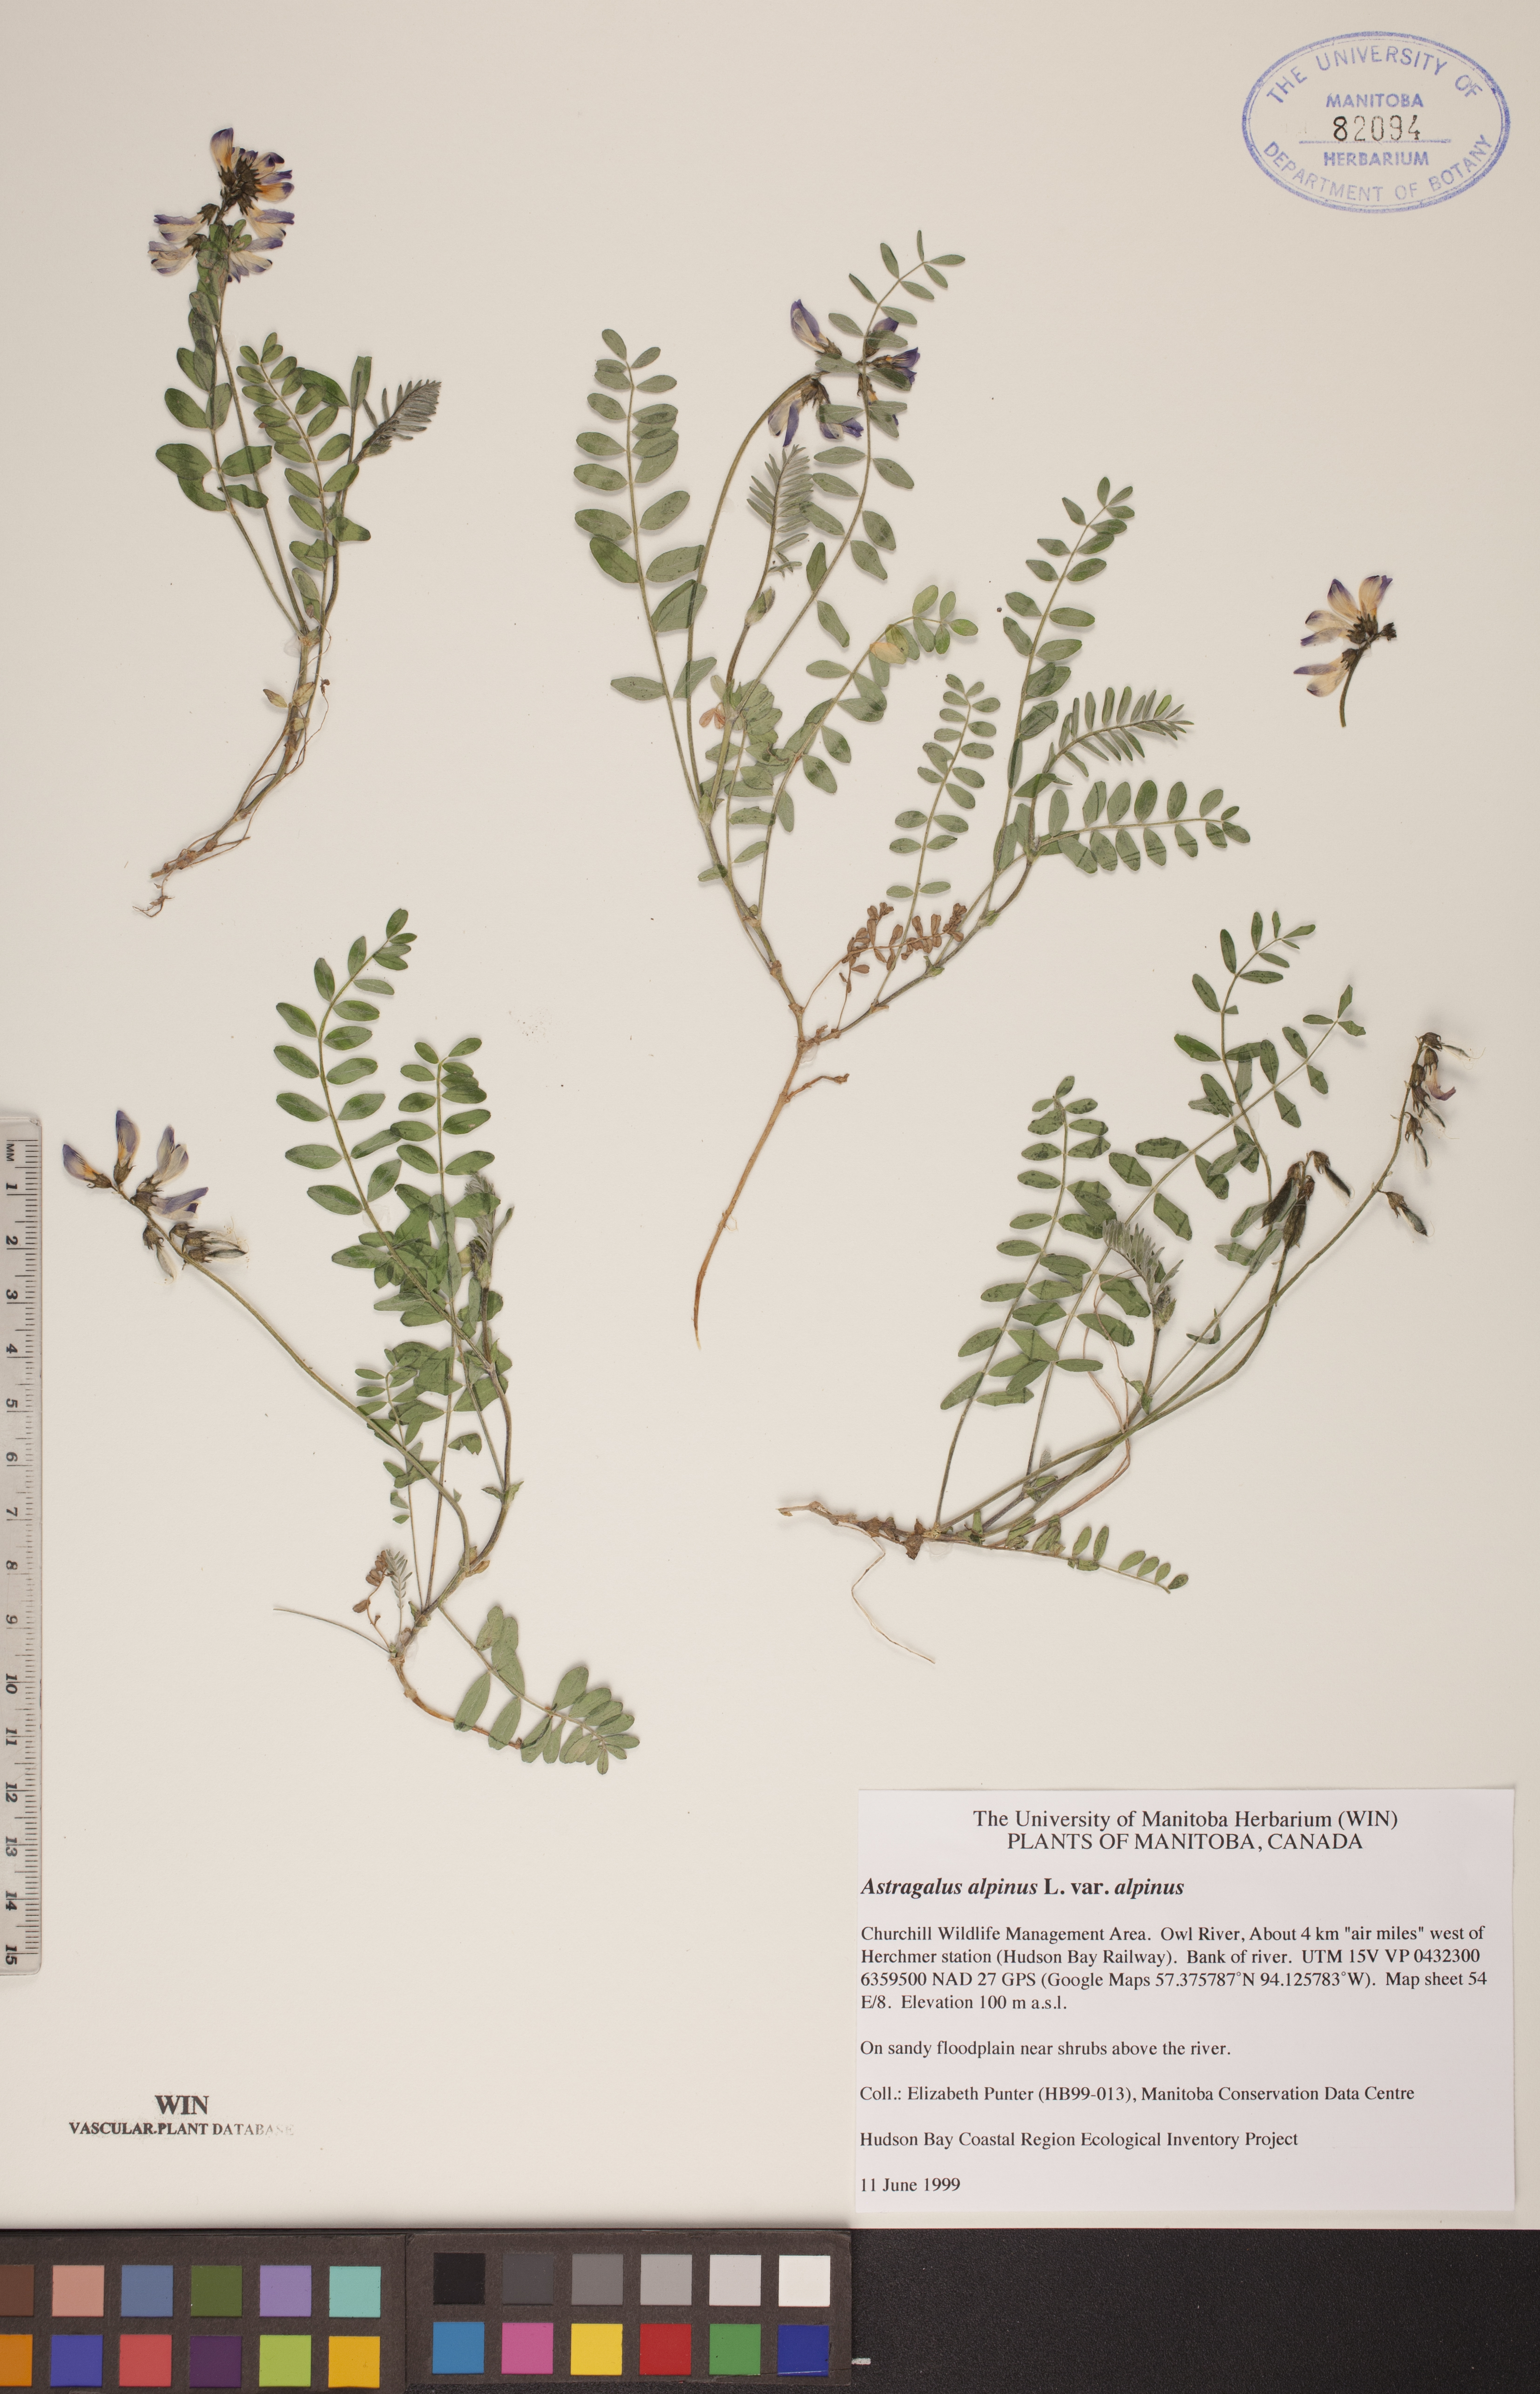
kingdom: Plantae
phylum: Tracheophyta
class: Magnoliopsida
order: Fabales
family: Fabaceae
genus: Astragalus
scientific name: Astragalus alpinus
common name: Alpine milk-vetch
